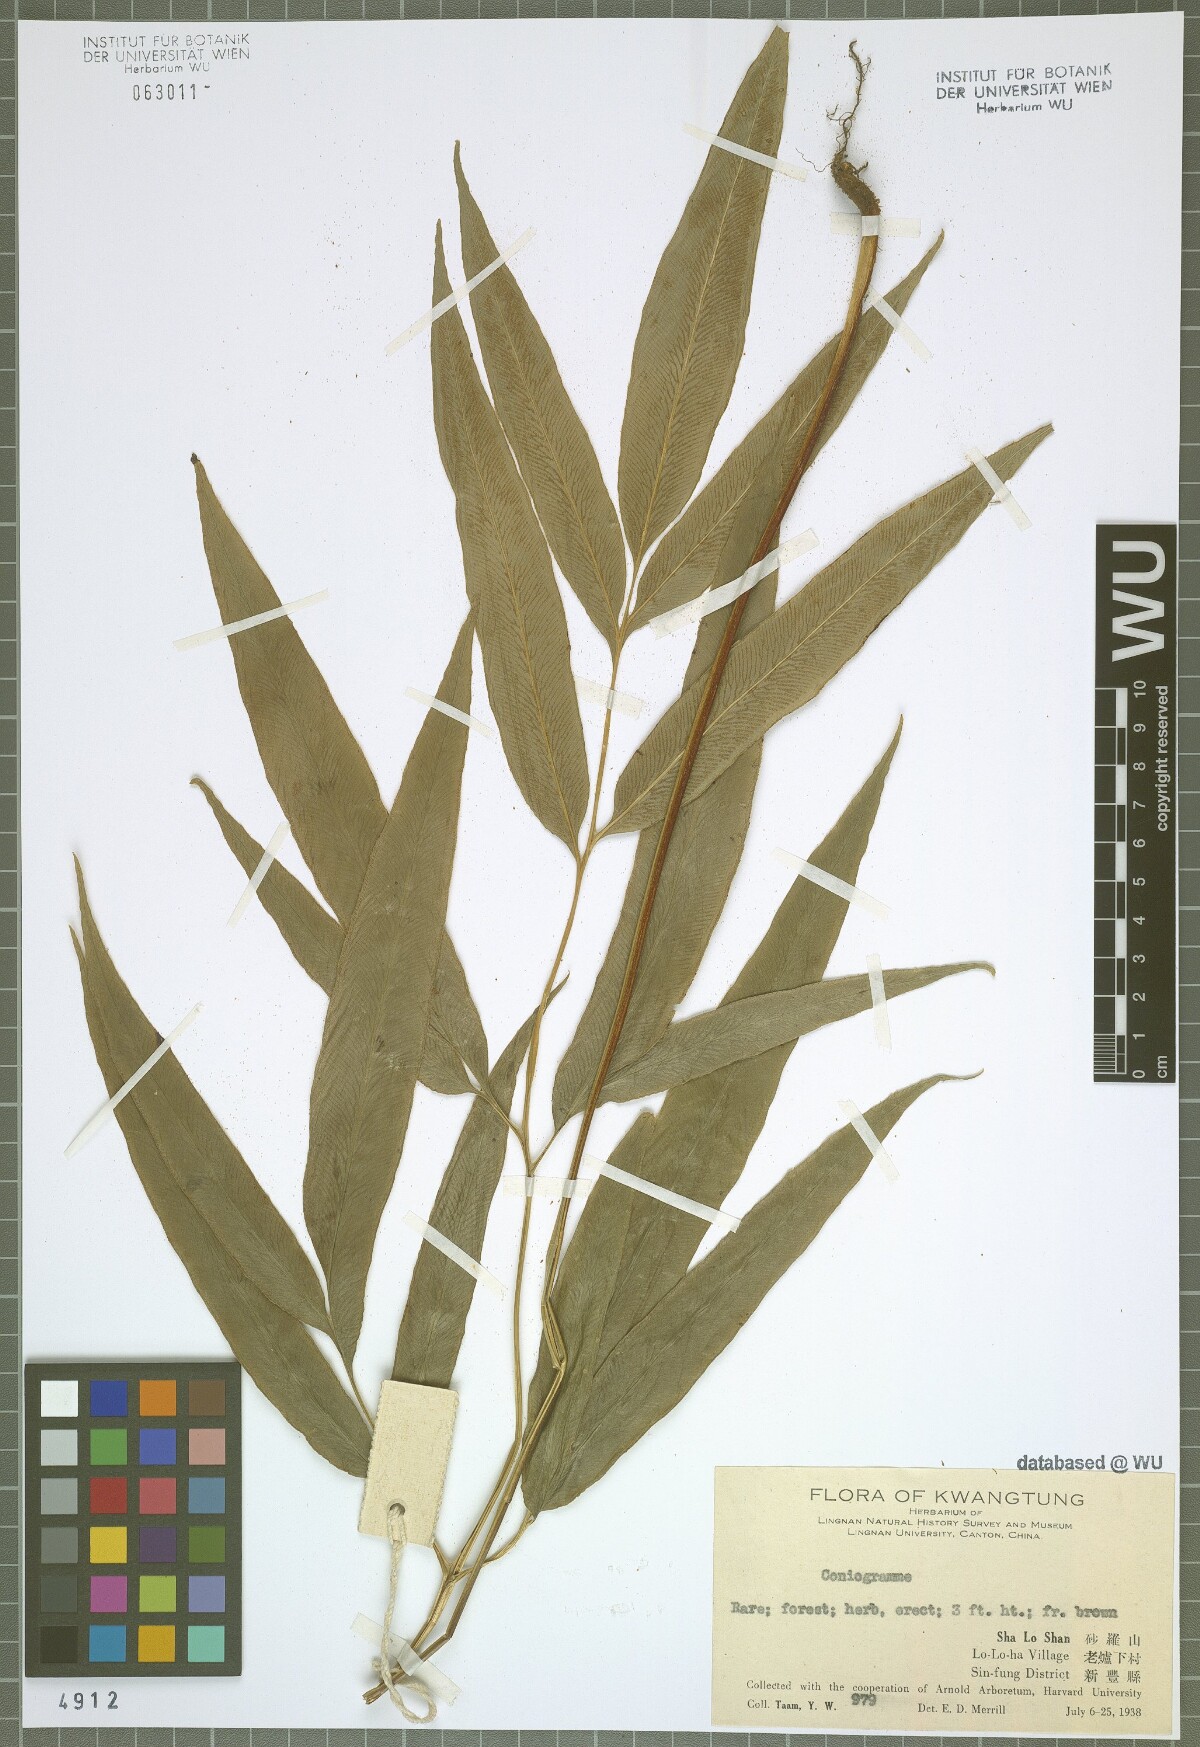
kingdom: Plantae
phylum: Tracheophyta
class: Polypodiopsida
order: Polypodiales
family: Pteridaceae
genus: Coniogramme
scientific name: Coniogramme
